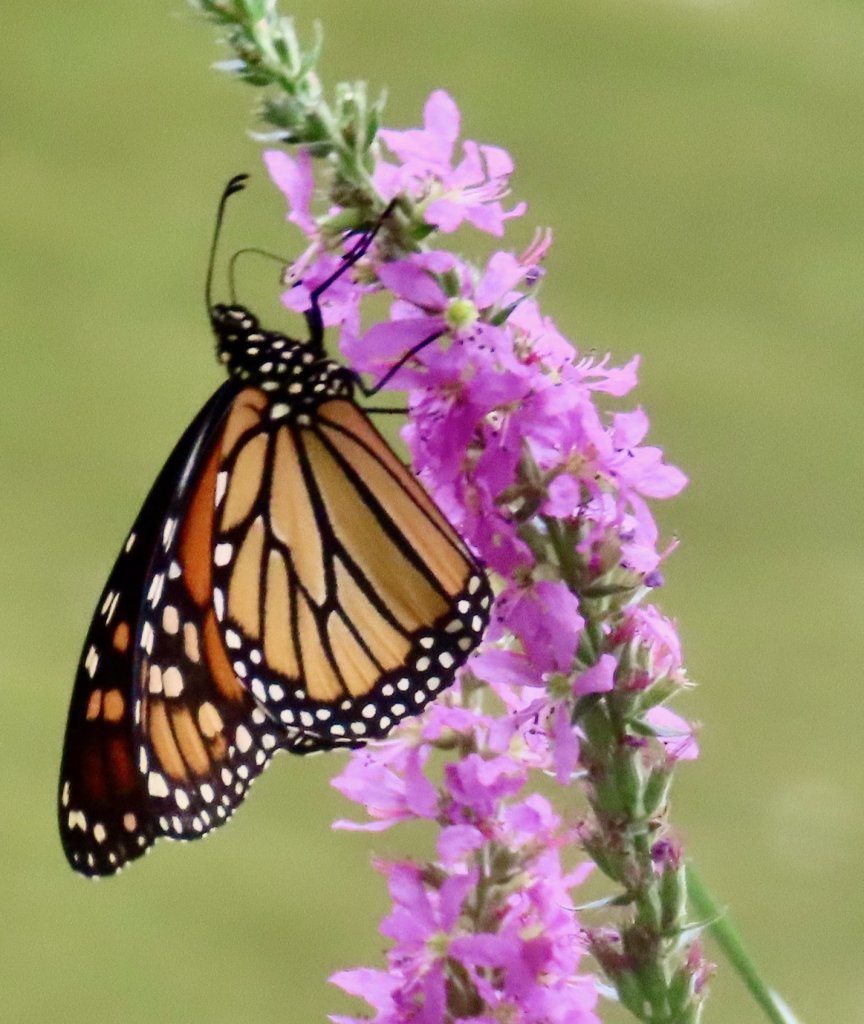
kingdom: Animalia
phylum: Arthropoda
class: Insecta
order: Lepidoptera
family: Nymphalidae
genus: Danaus
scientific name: Danaus plexippus
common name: Monarch
